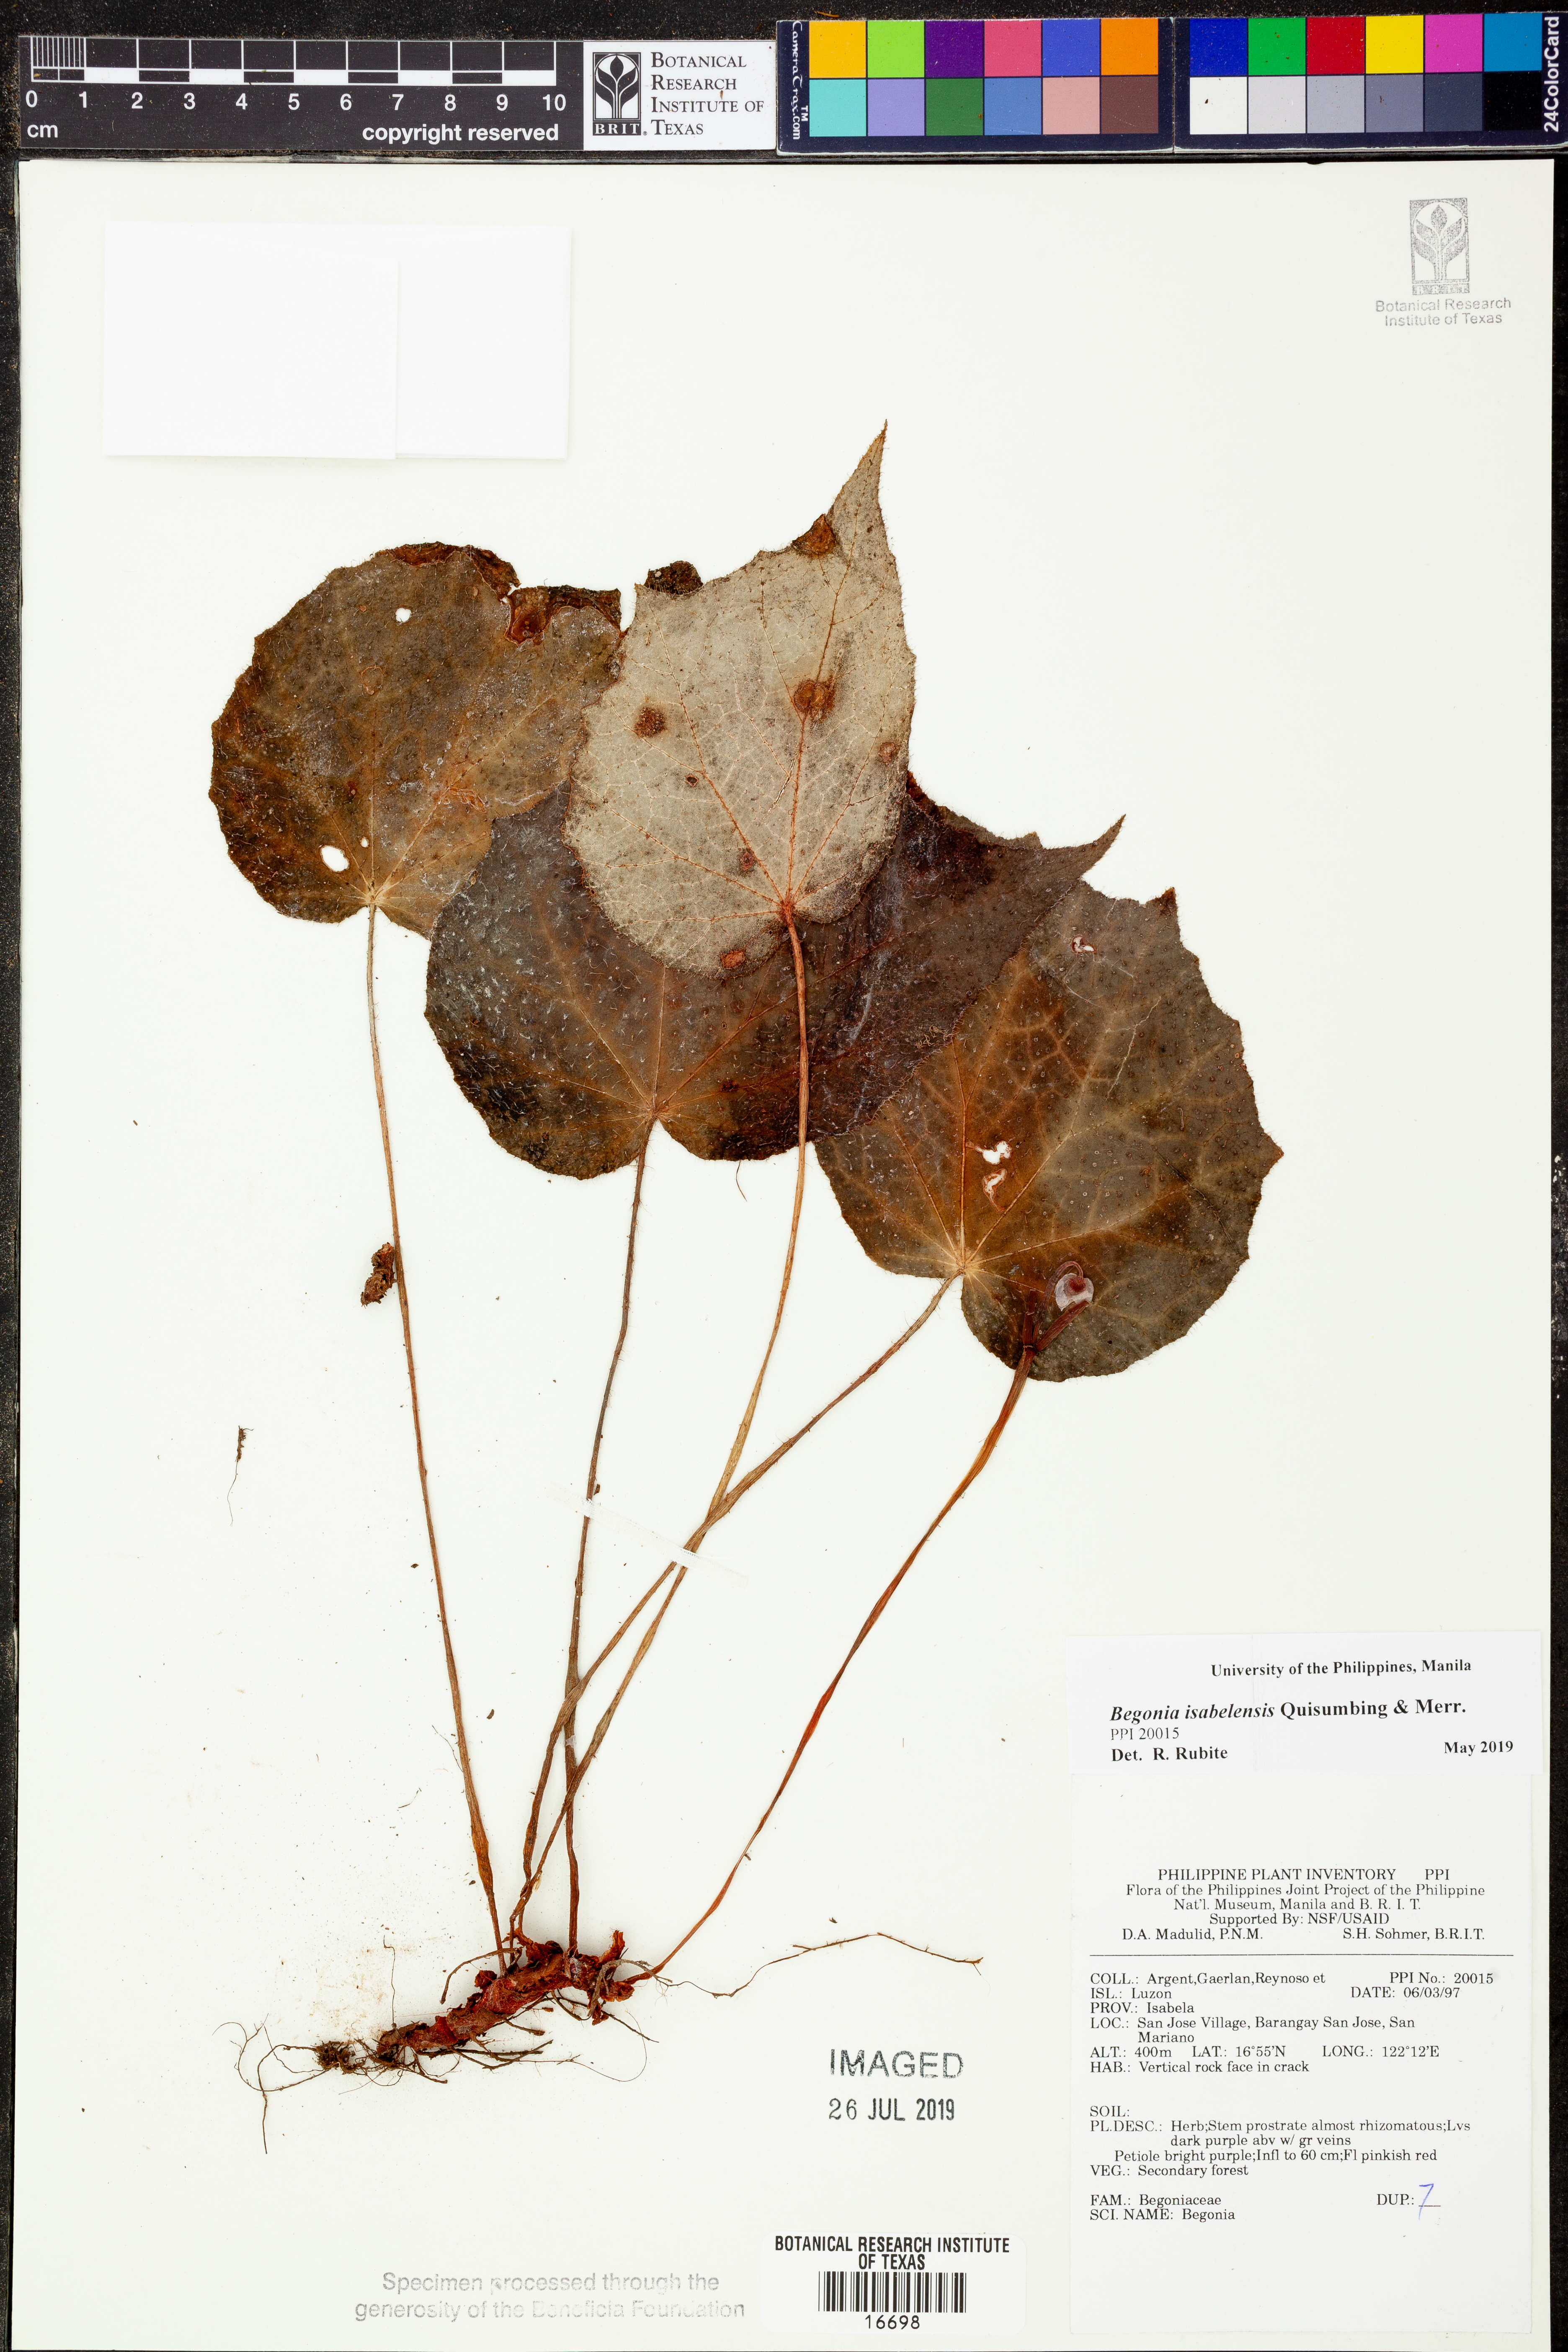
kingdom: Plantae
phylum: Tracheophyta
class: Magnoliopsida
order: Cucurbitales
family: Begoniaceae
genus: Begonia
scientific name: Begonia isabelensis
